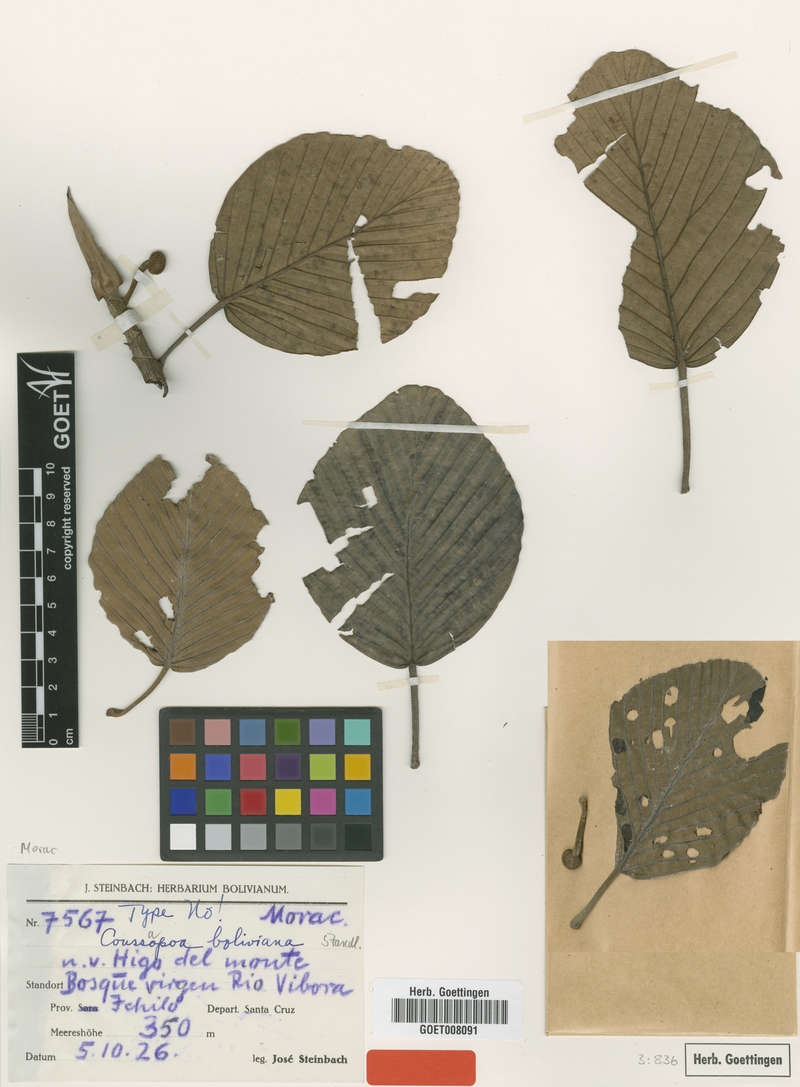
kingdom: Plantae
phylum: Tracheophyta
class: Magnoliopsida
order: Rosales
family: Urticaceae
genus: Coussapoa
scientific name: Coussapoa villosa
